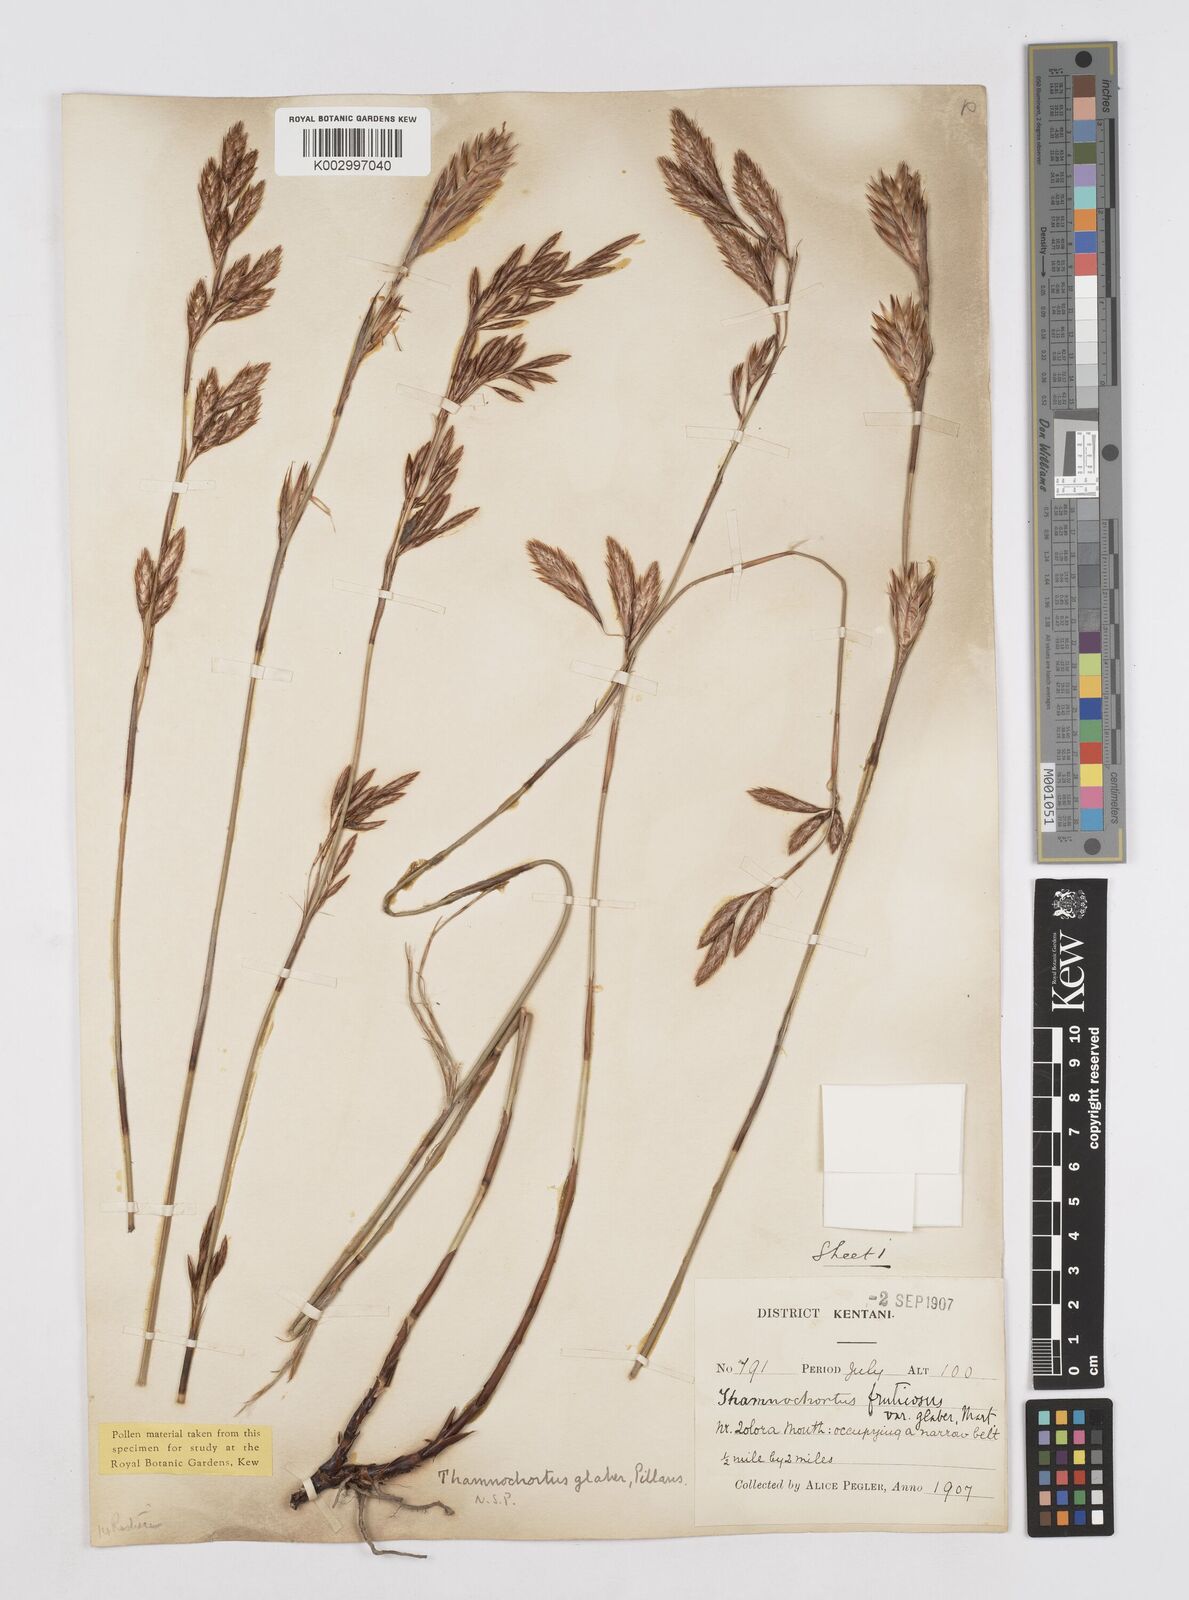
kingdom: Plantae
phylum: Tracheophyta
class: Liliopsida
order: Poales
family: Restionaceae
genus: Thamnochortus
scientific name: Thamnochortus glaber
